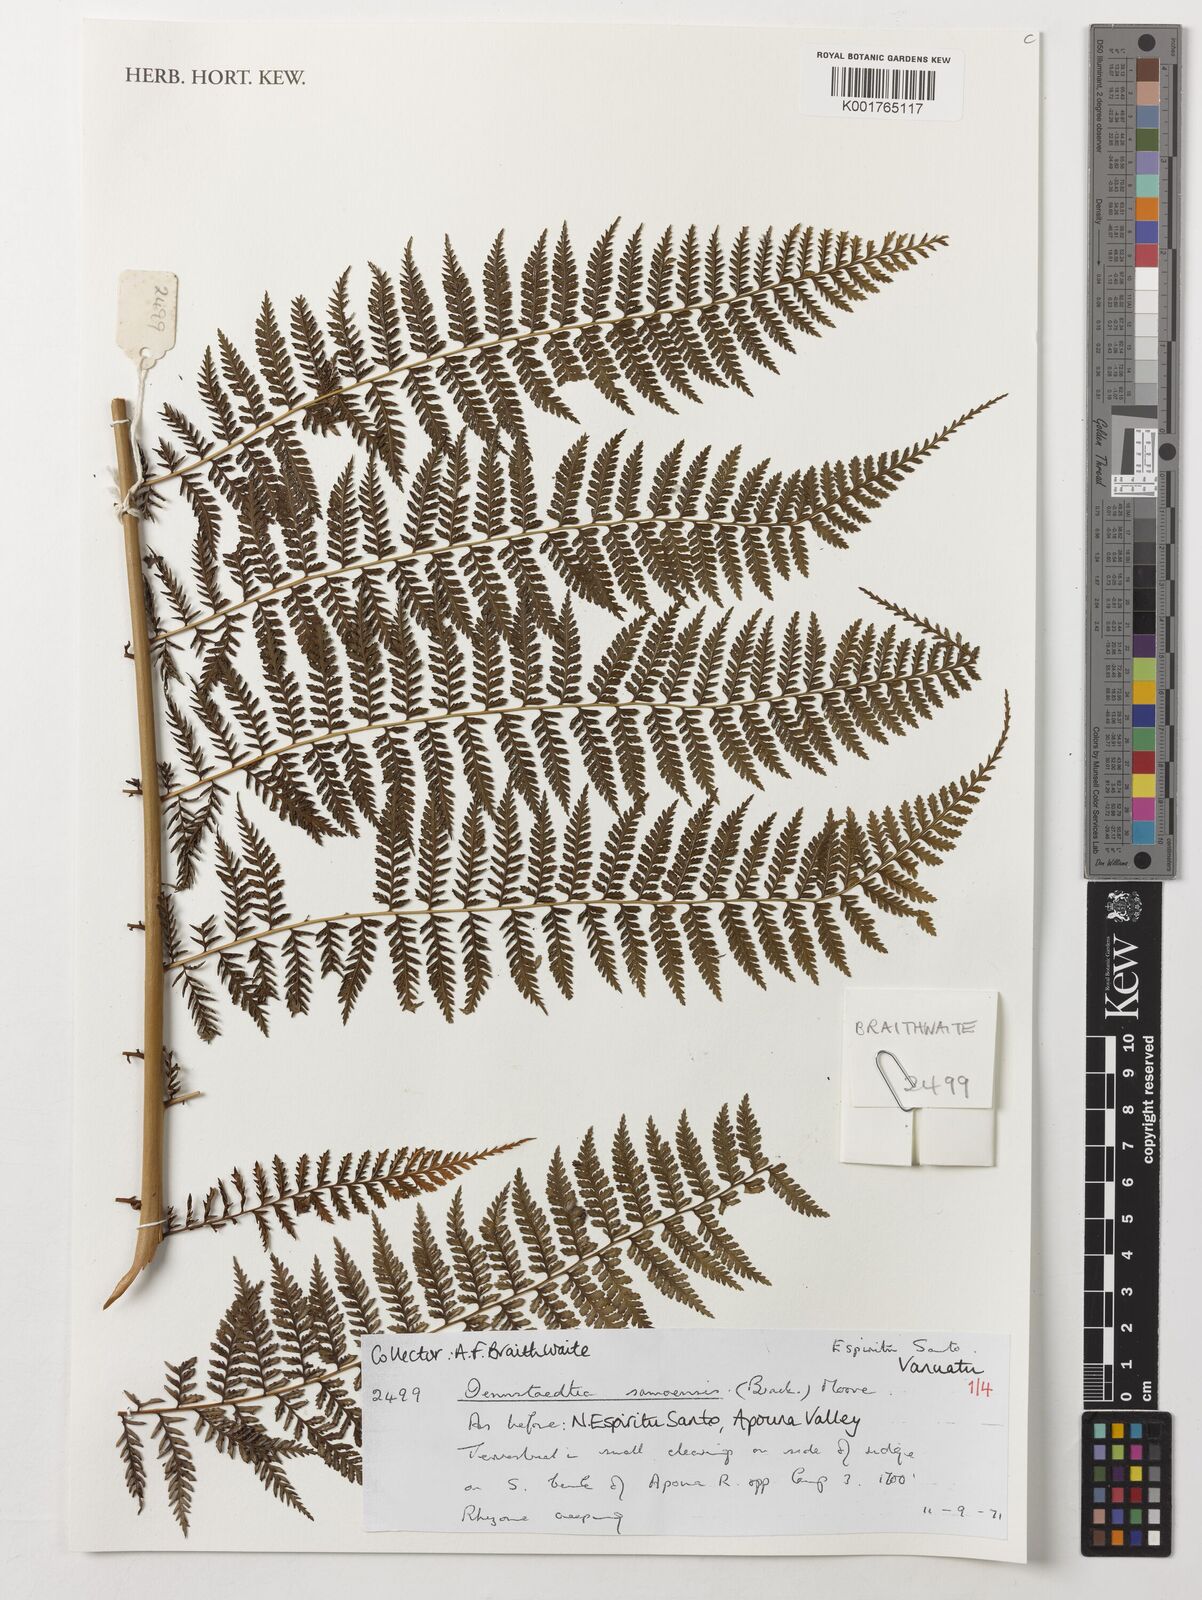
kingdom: Plantae
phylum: Tracheophyta
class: Polypodiopsida
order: Polypodiales
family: Dennstaedtiaceae
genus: Dennstaedtia
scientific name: Dennstaedtia samoensis
